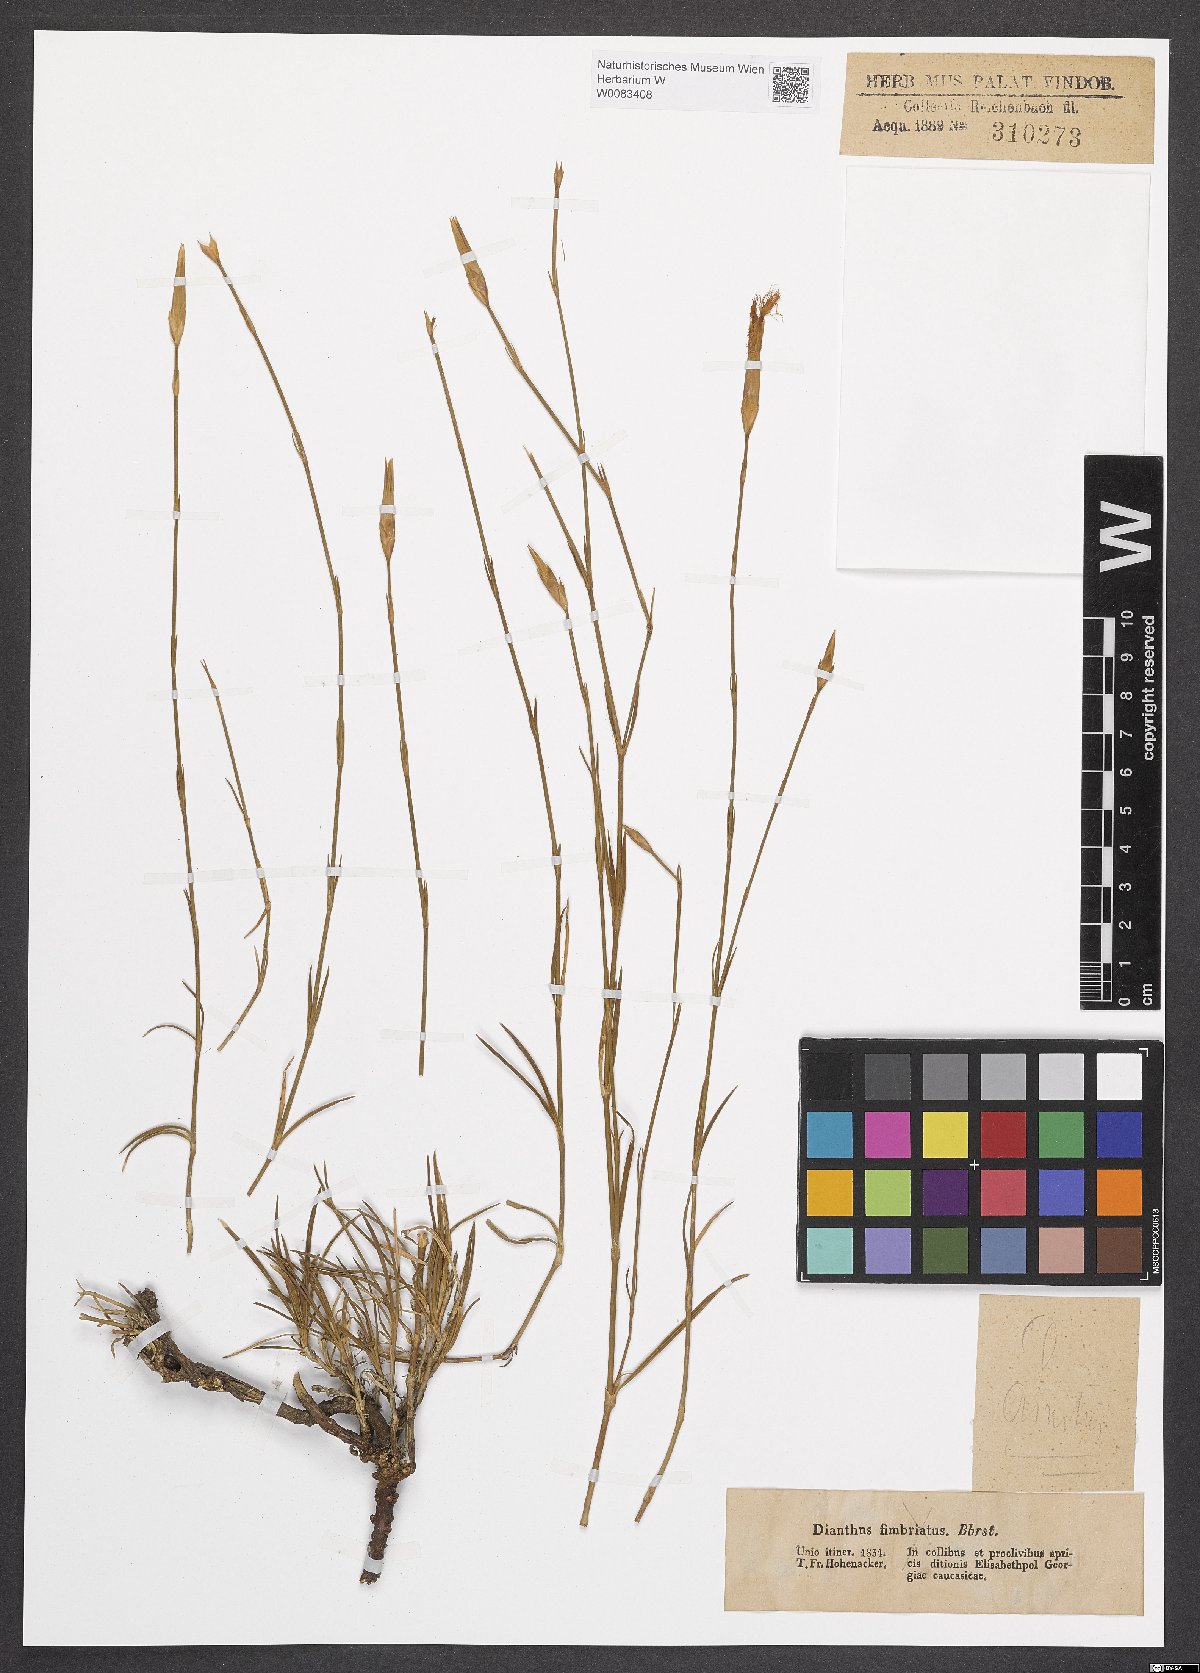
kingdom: Plantae
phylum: Tracheophyta
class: Magnoliopsida
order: Caryophyllales
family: Caryophyllaceae
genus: Dianthus
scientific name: Dianthus crinitus
